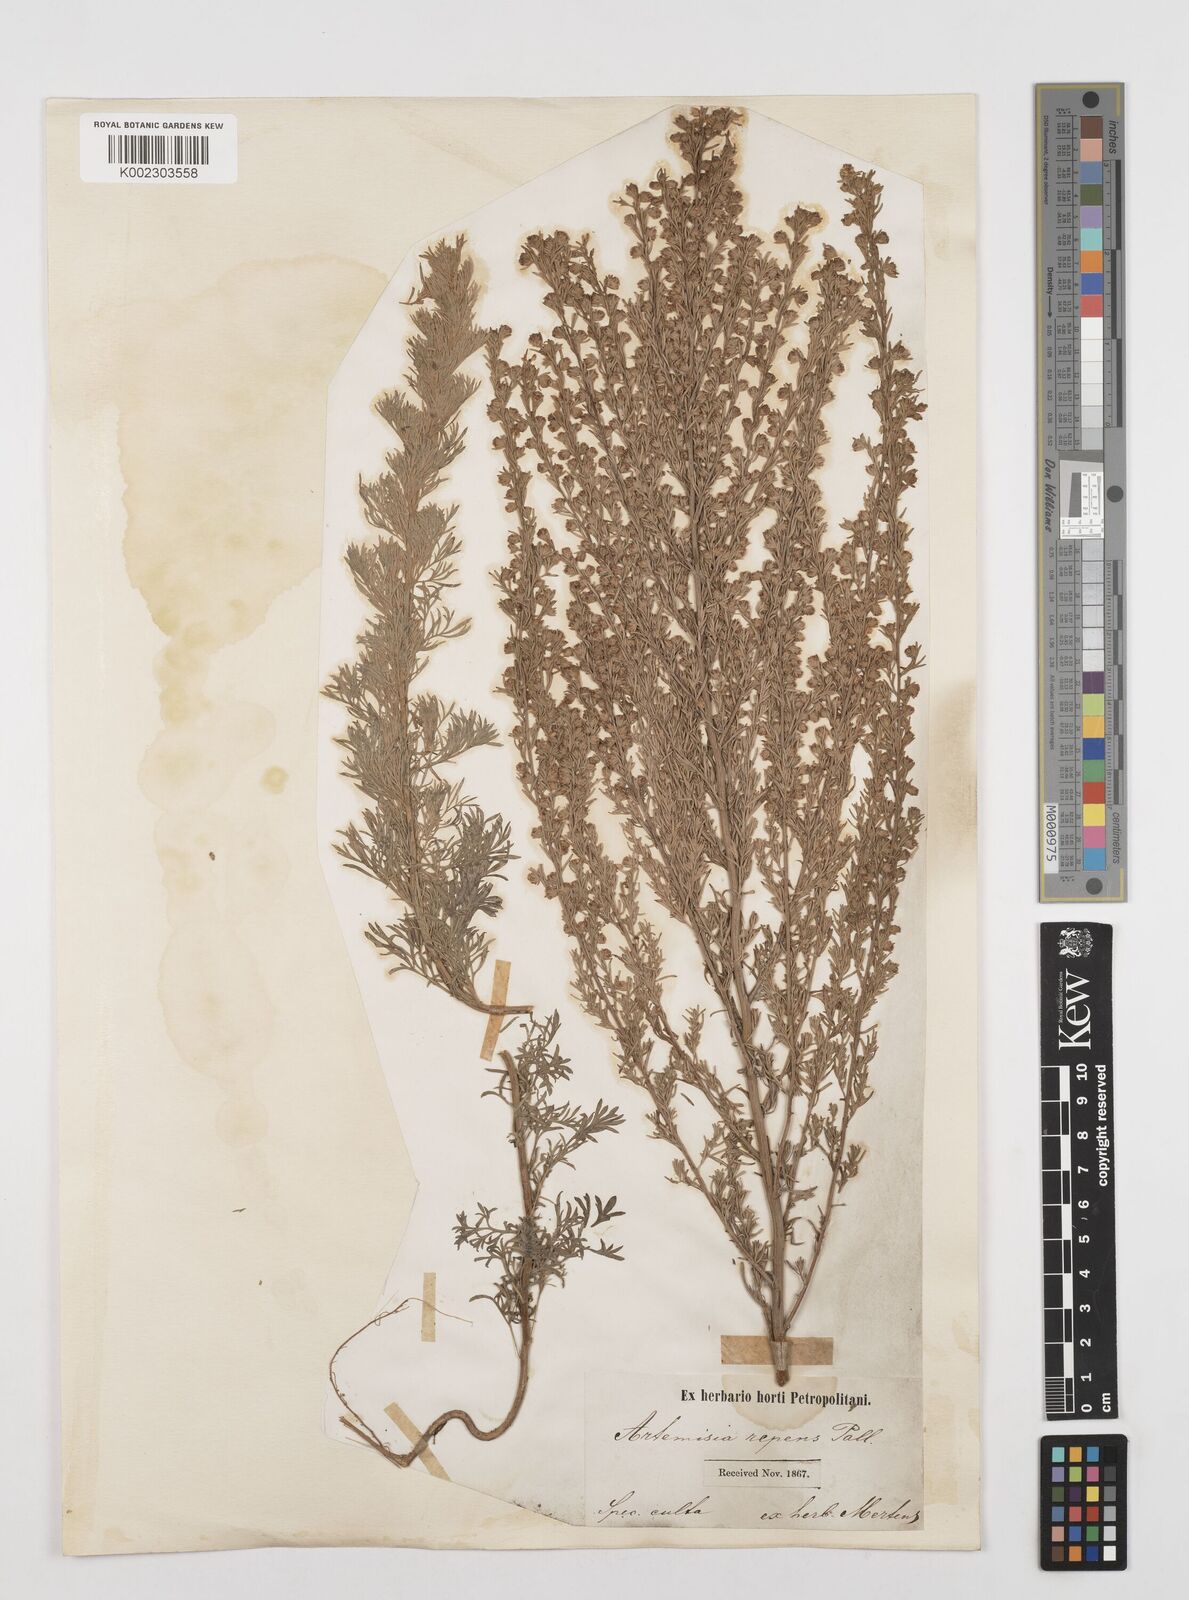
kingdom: Plantae
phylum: Tracheophyta
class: Magnoliopsida
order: Asterales
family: Asteraceae
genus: Artemisia
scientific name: Artemisia austriaca
